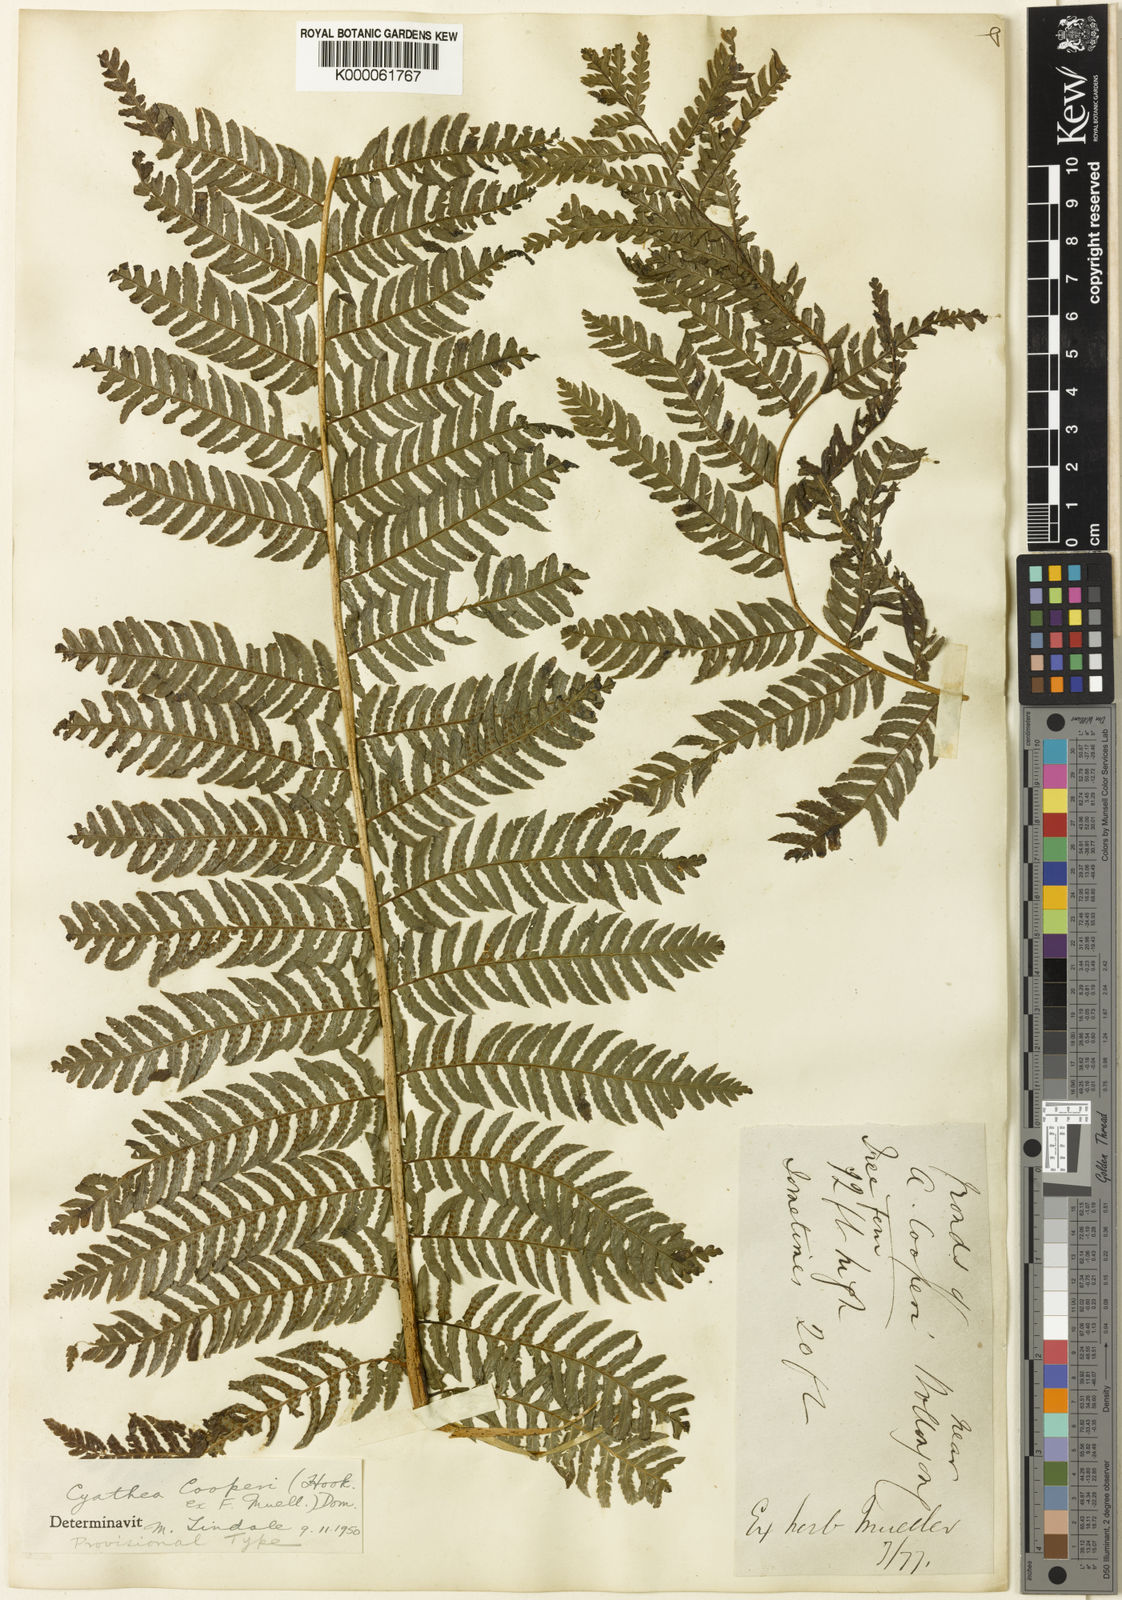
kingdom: Plantae
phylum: Tracheophyta
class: Polypodiopsida
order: Cyatheales
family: Cyatheaceae
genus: Sphaeropteris
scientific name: Sphaeropteris cooperi
